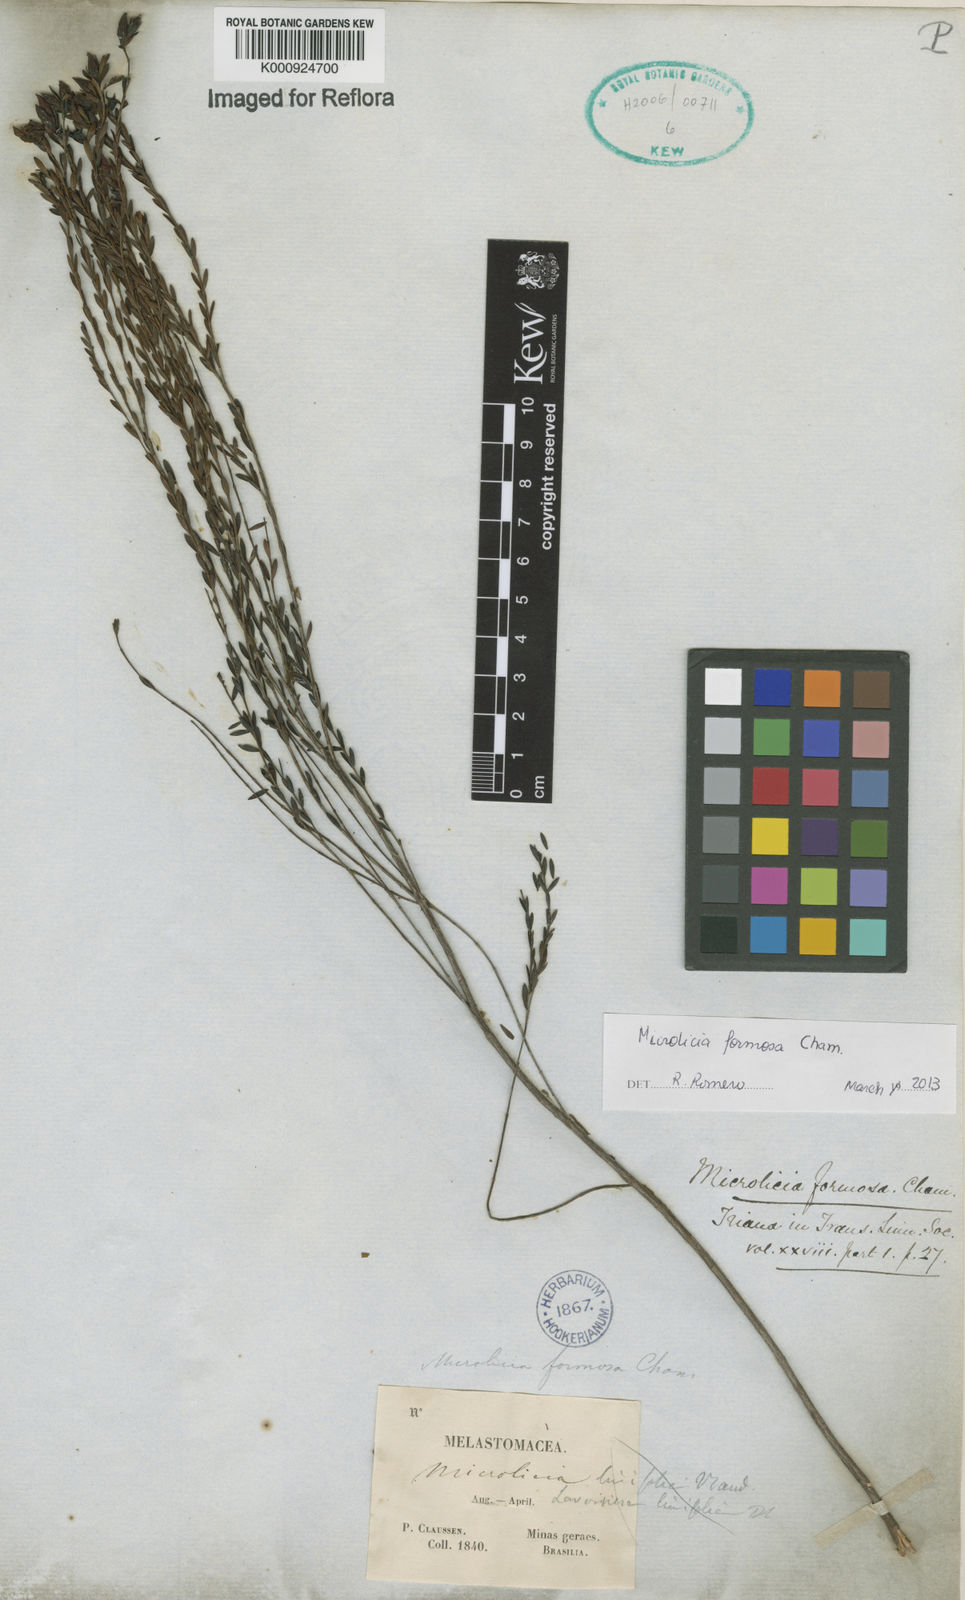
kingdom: Plantae
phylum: Tracheophyta
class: Magnoliopsida
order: Myrtales
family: Melastomataceae
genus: Microlicia
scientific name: Microlicia formosa
